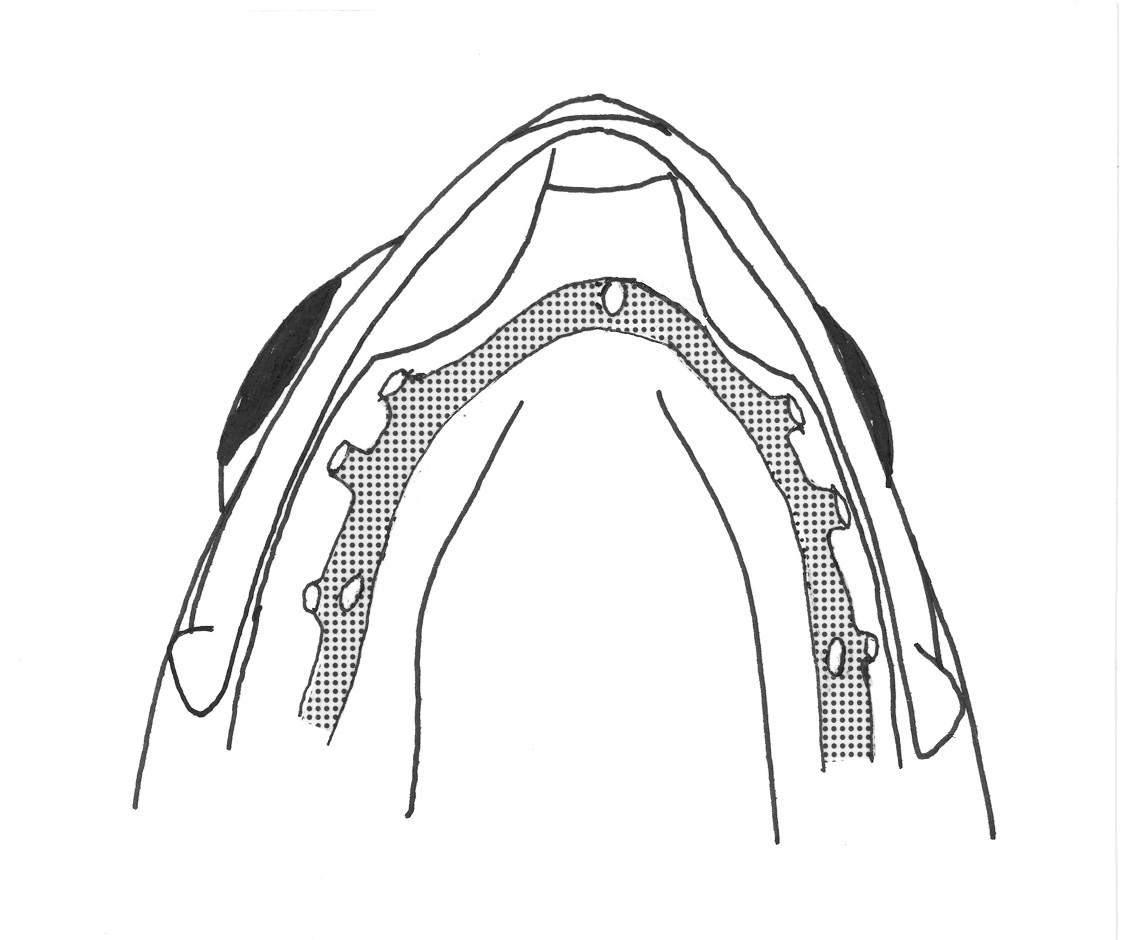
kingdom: Animalia
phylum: Chordata
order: Perciformes
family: Tripterygiidae
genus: Helcogramma
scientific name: Helcogramma obtusirostris
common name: Shortsnout triplefin
